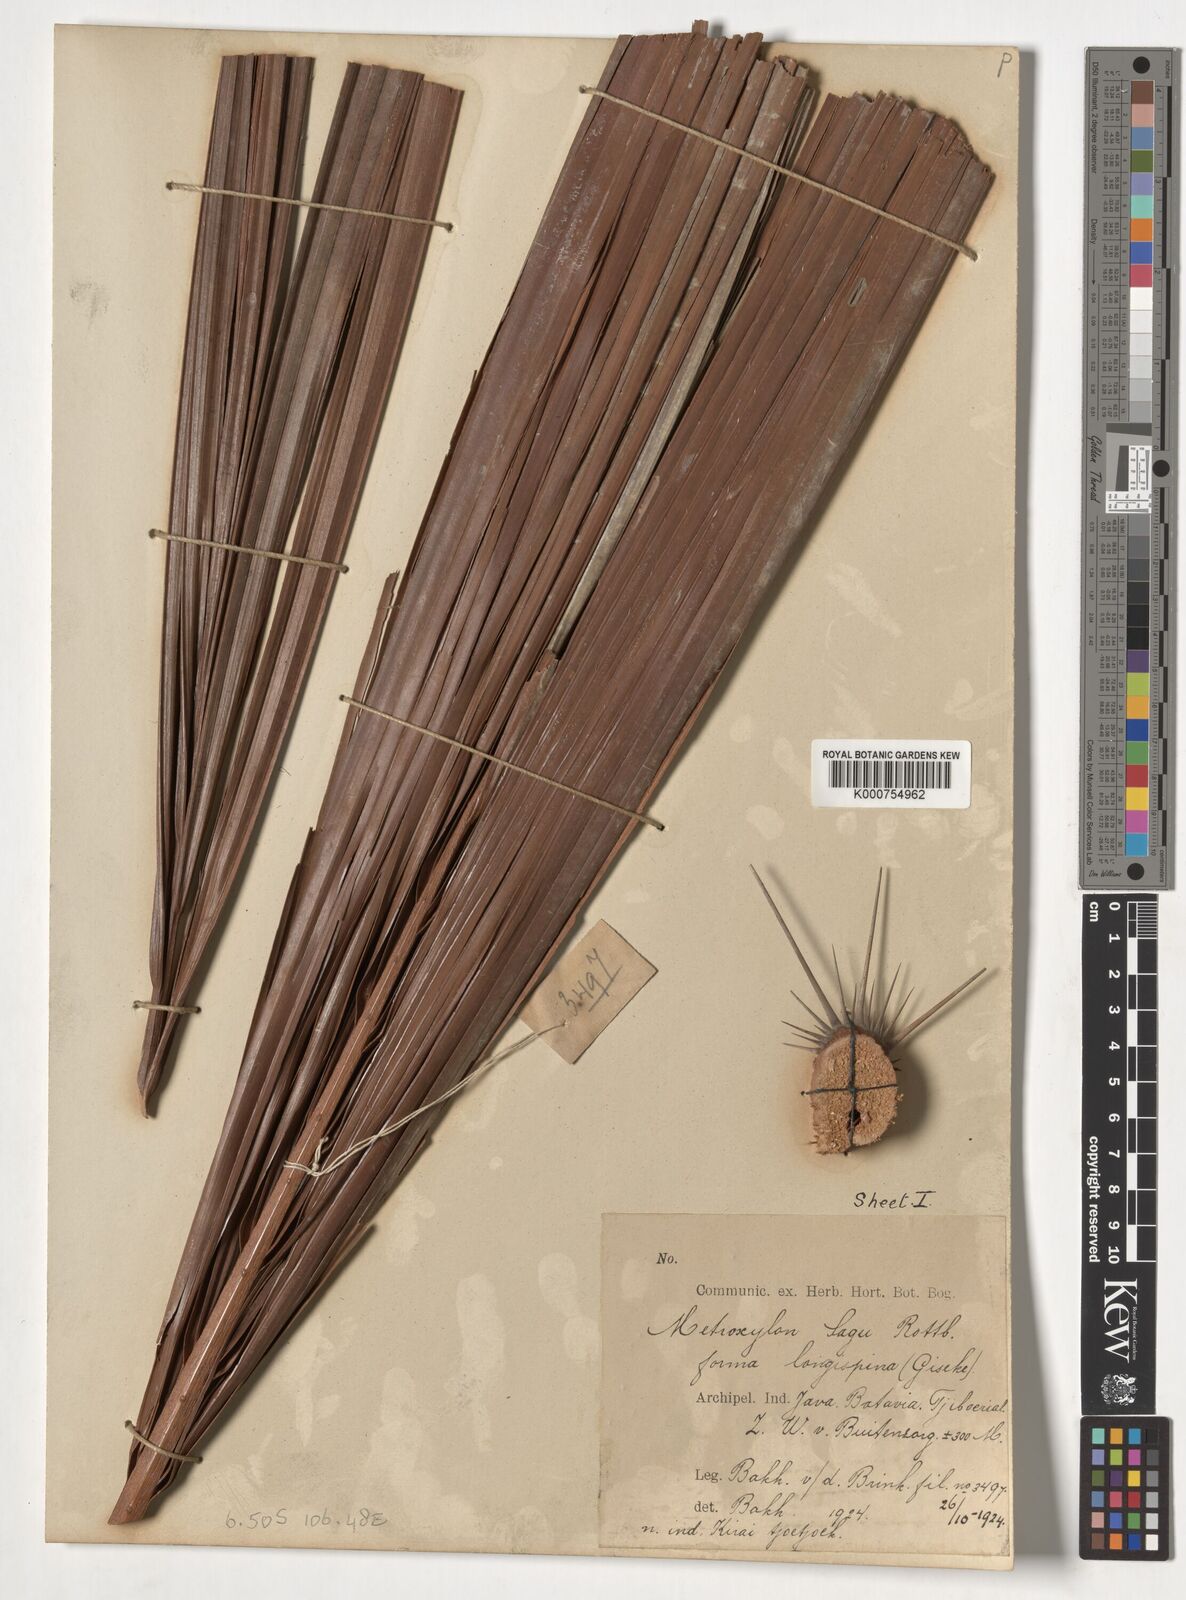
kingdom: Plantae
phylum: Tracheophyta
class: Liliopsida
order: Arecales
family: Arecaceae
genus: Metroxylon
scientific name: Metroxylon sagu
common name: Sago palm
